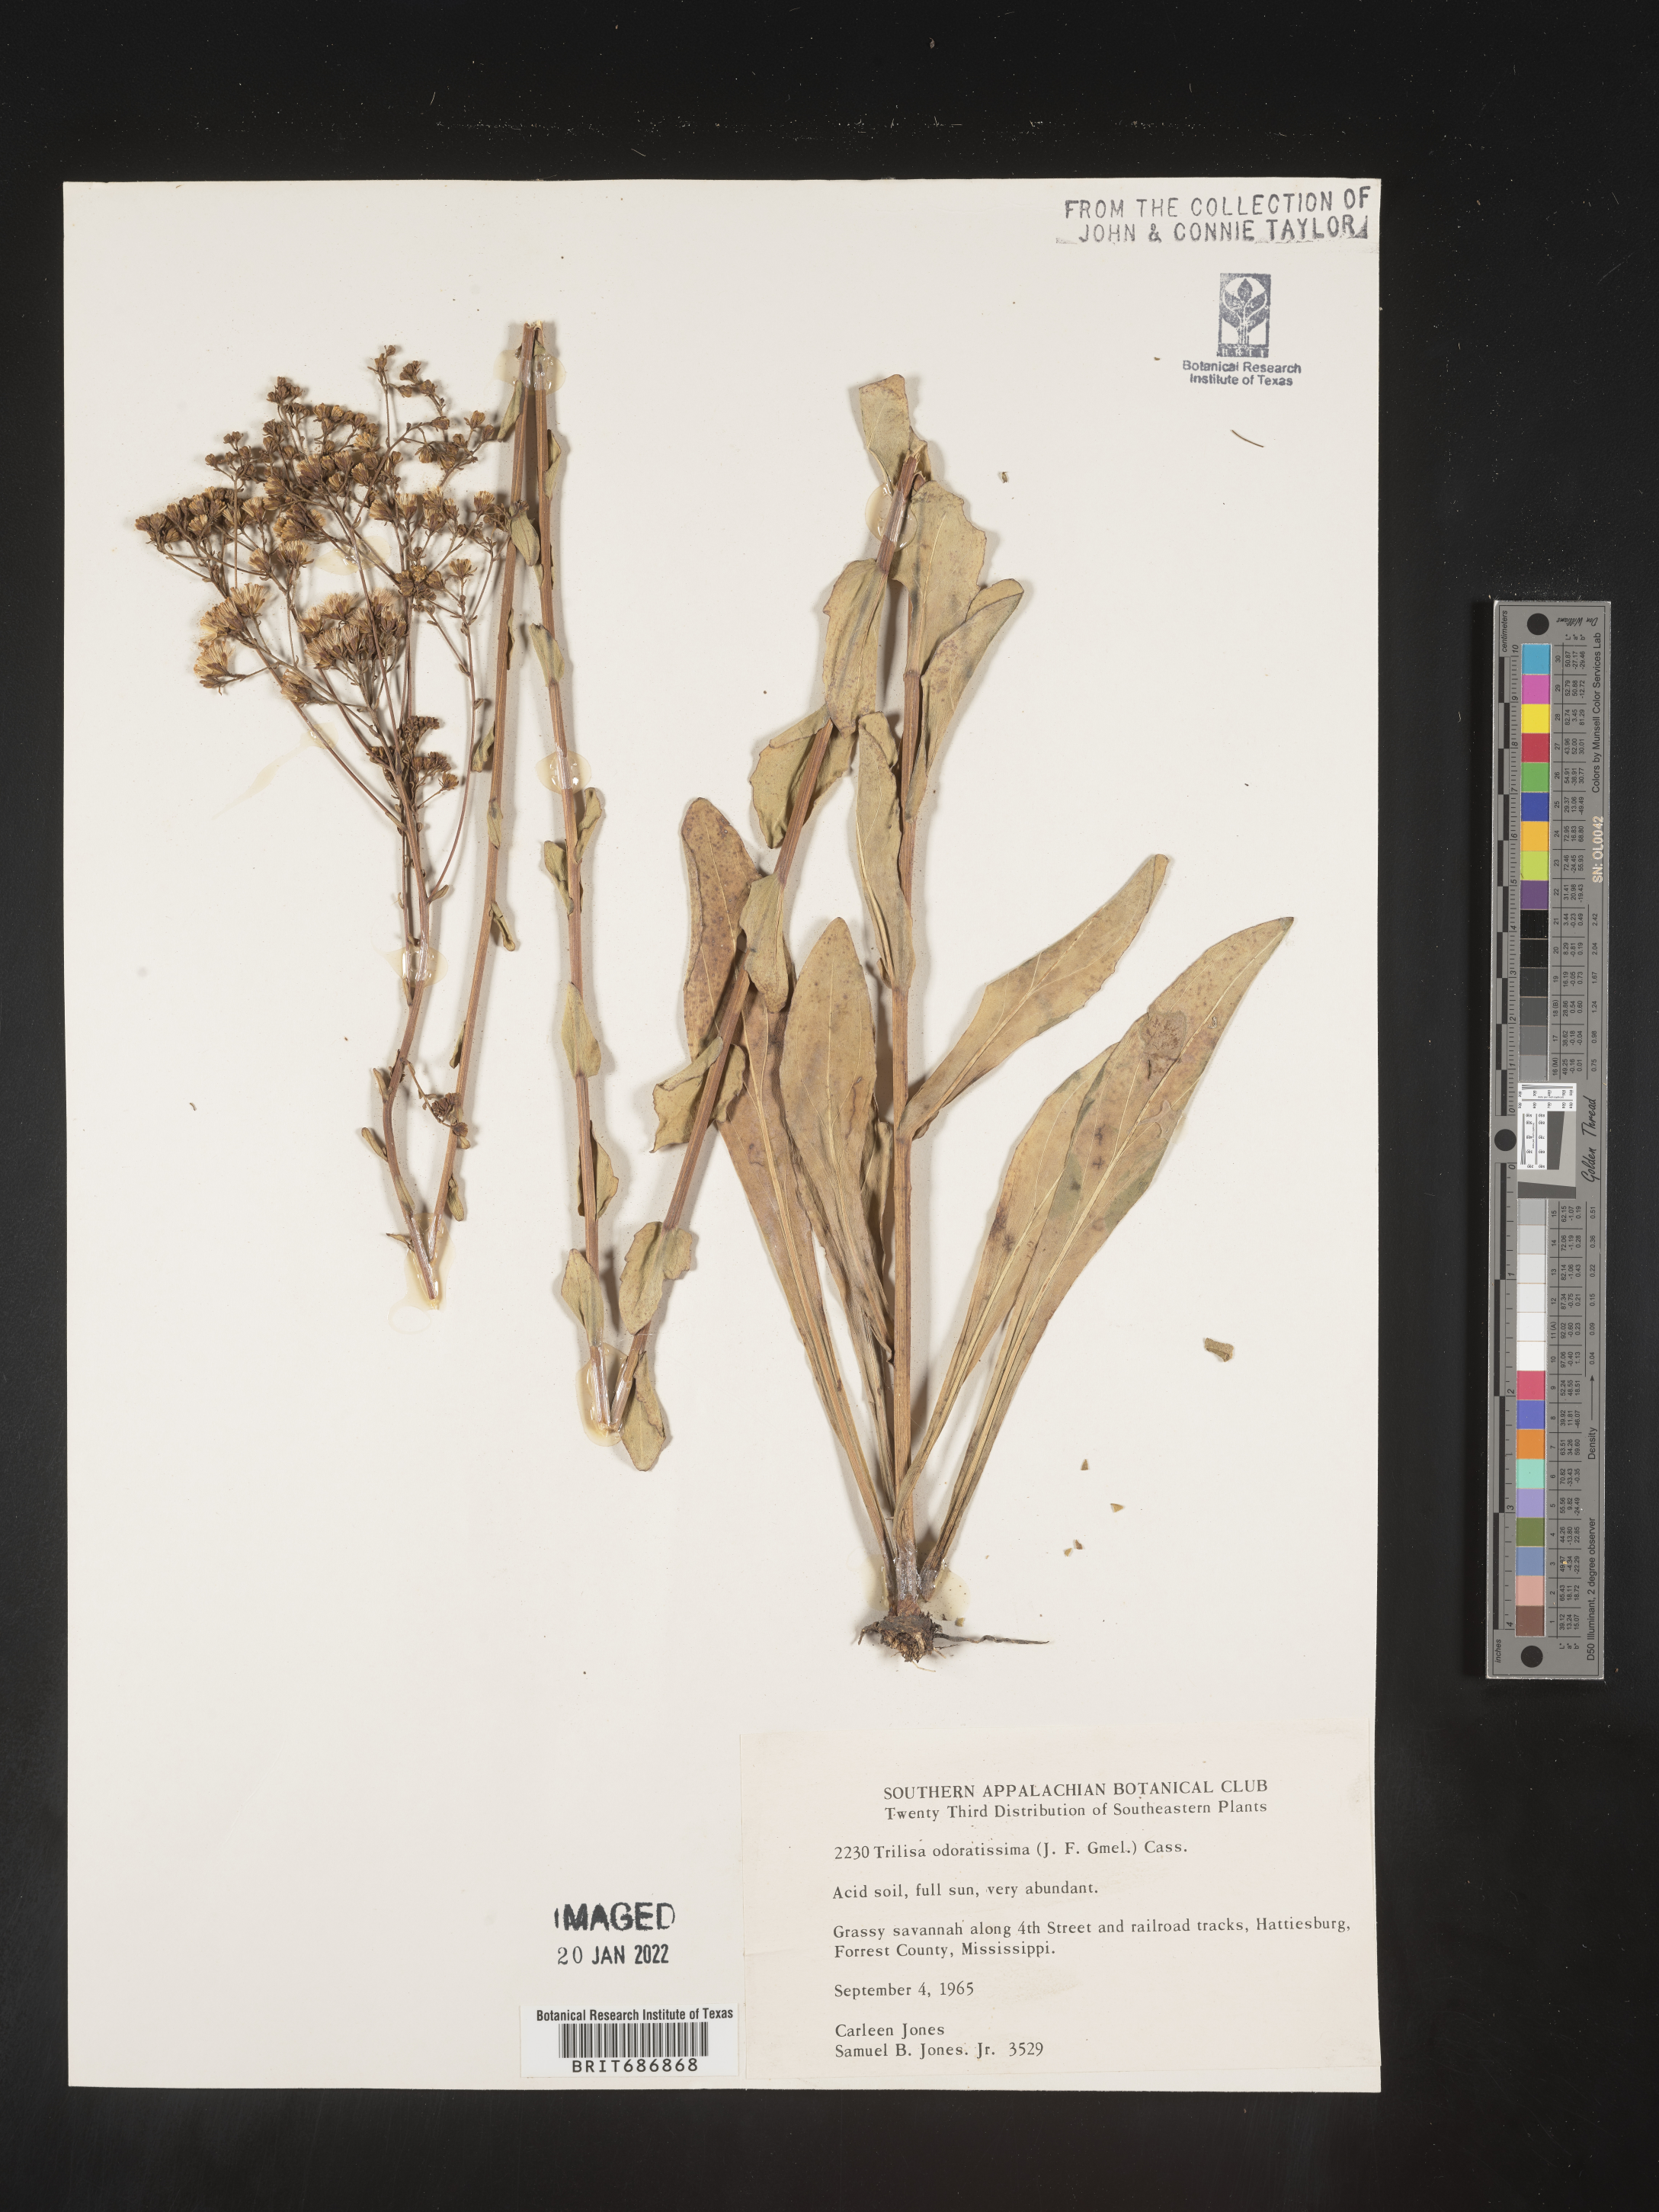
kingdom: Plantae
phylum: Tracheophyta
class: Magnoliopsida
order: Asterales
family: Asteraceae
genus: Carphephorus
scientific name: Carphephorus odoratissimus
